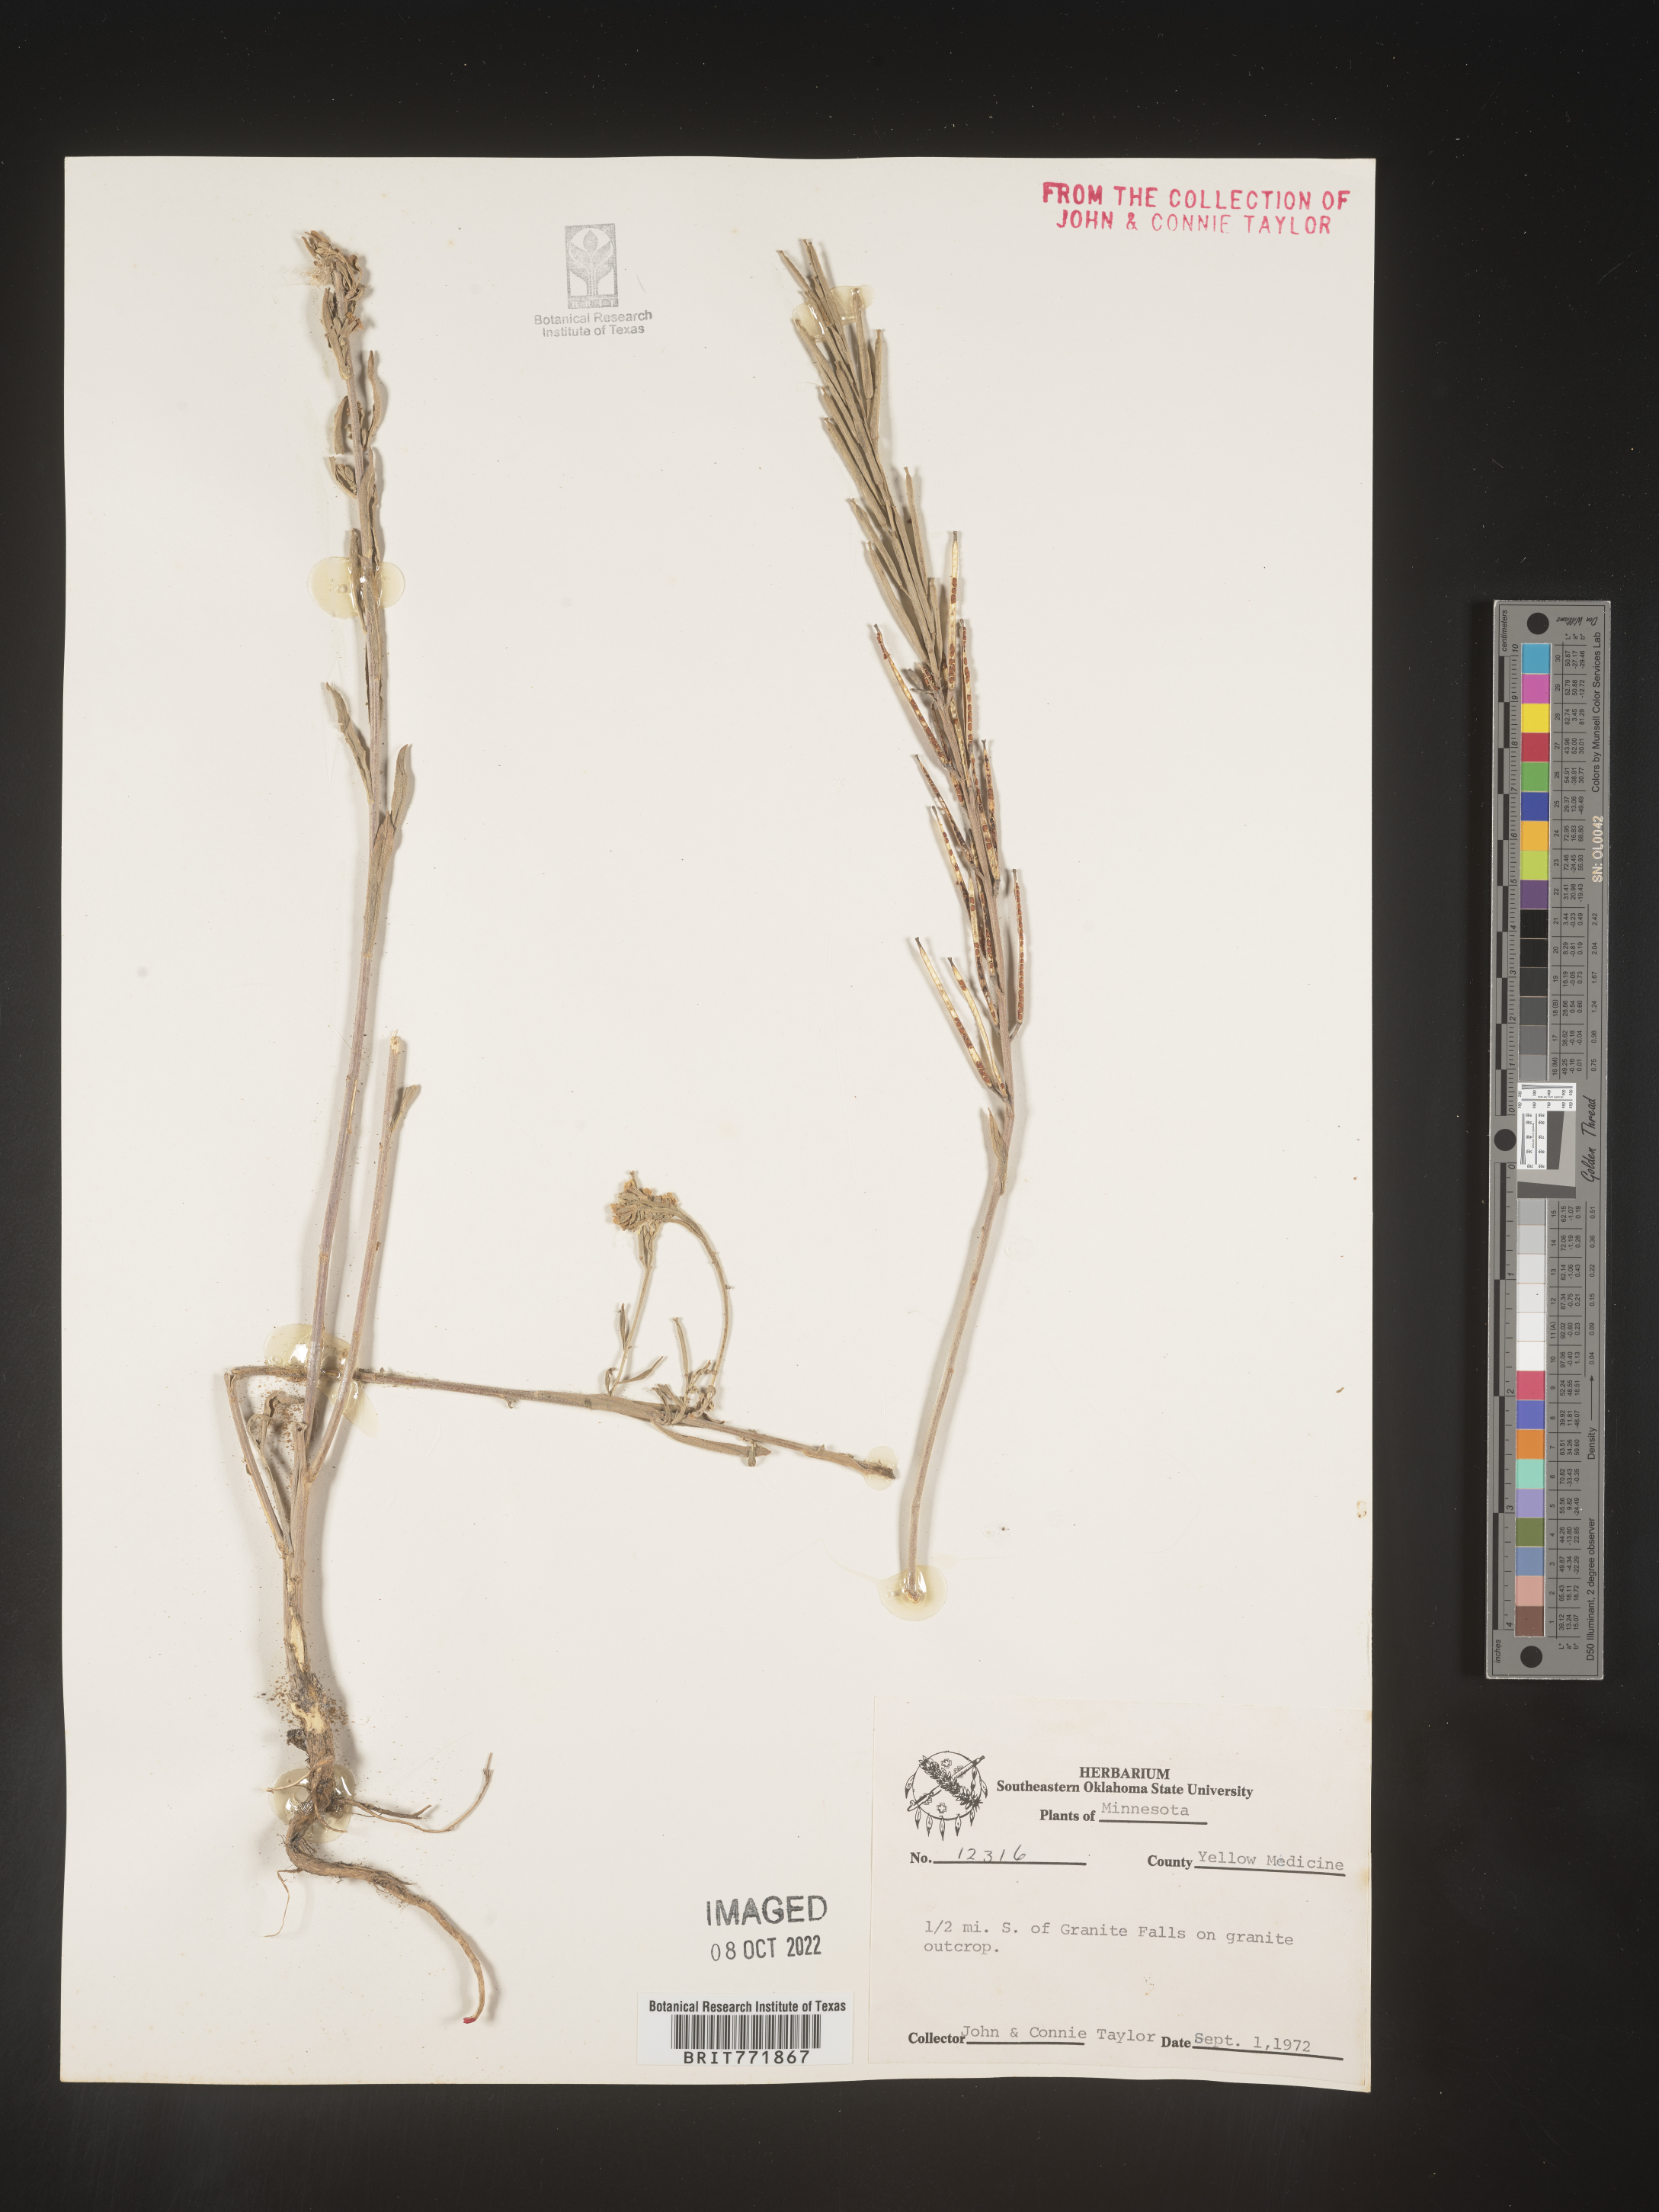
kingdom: Plantae
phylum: Tracheophyta
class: Magnoliopsida
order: Brassicales
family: Brassicaceae
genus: Arabis
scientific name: Arabis
